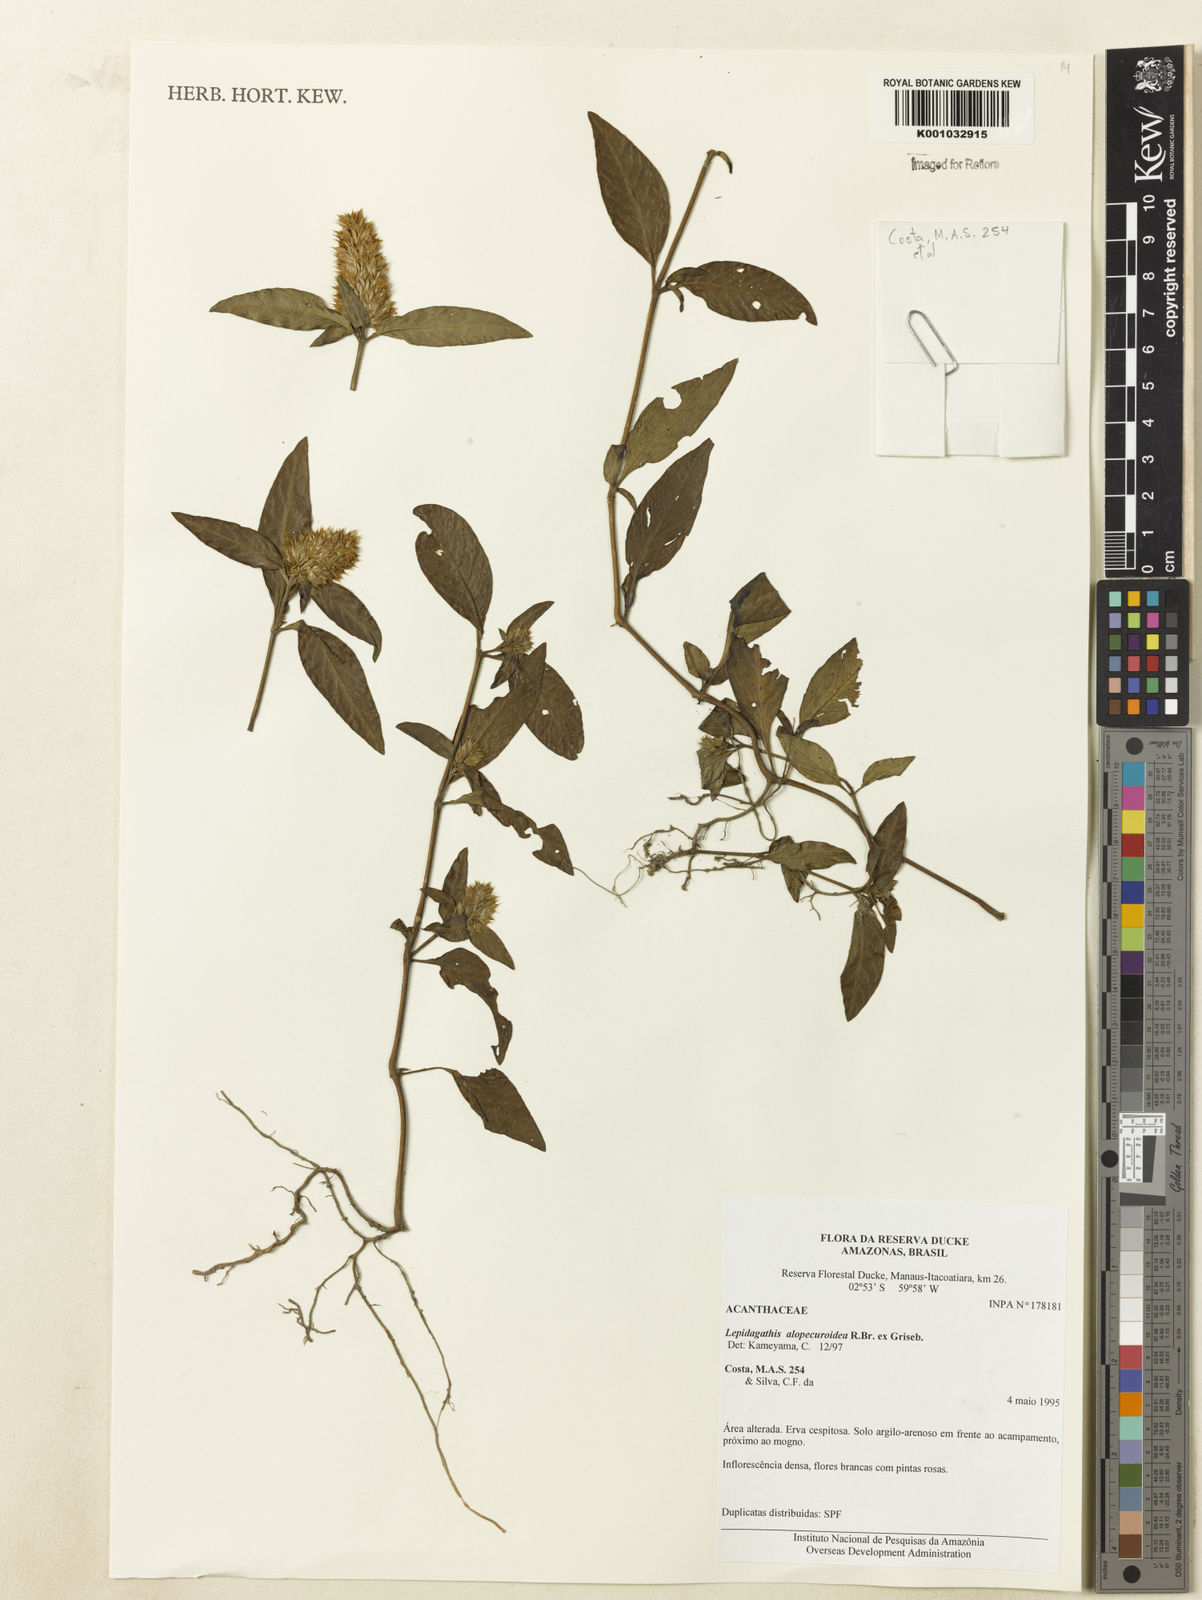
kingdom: Plantae
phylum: Tracheophyta
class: Magnoliopsida
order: Lamiales
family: Acanthaceae
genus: Lepidagathis
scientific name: Lepidagathis alopecuroidea
